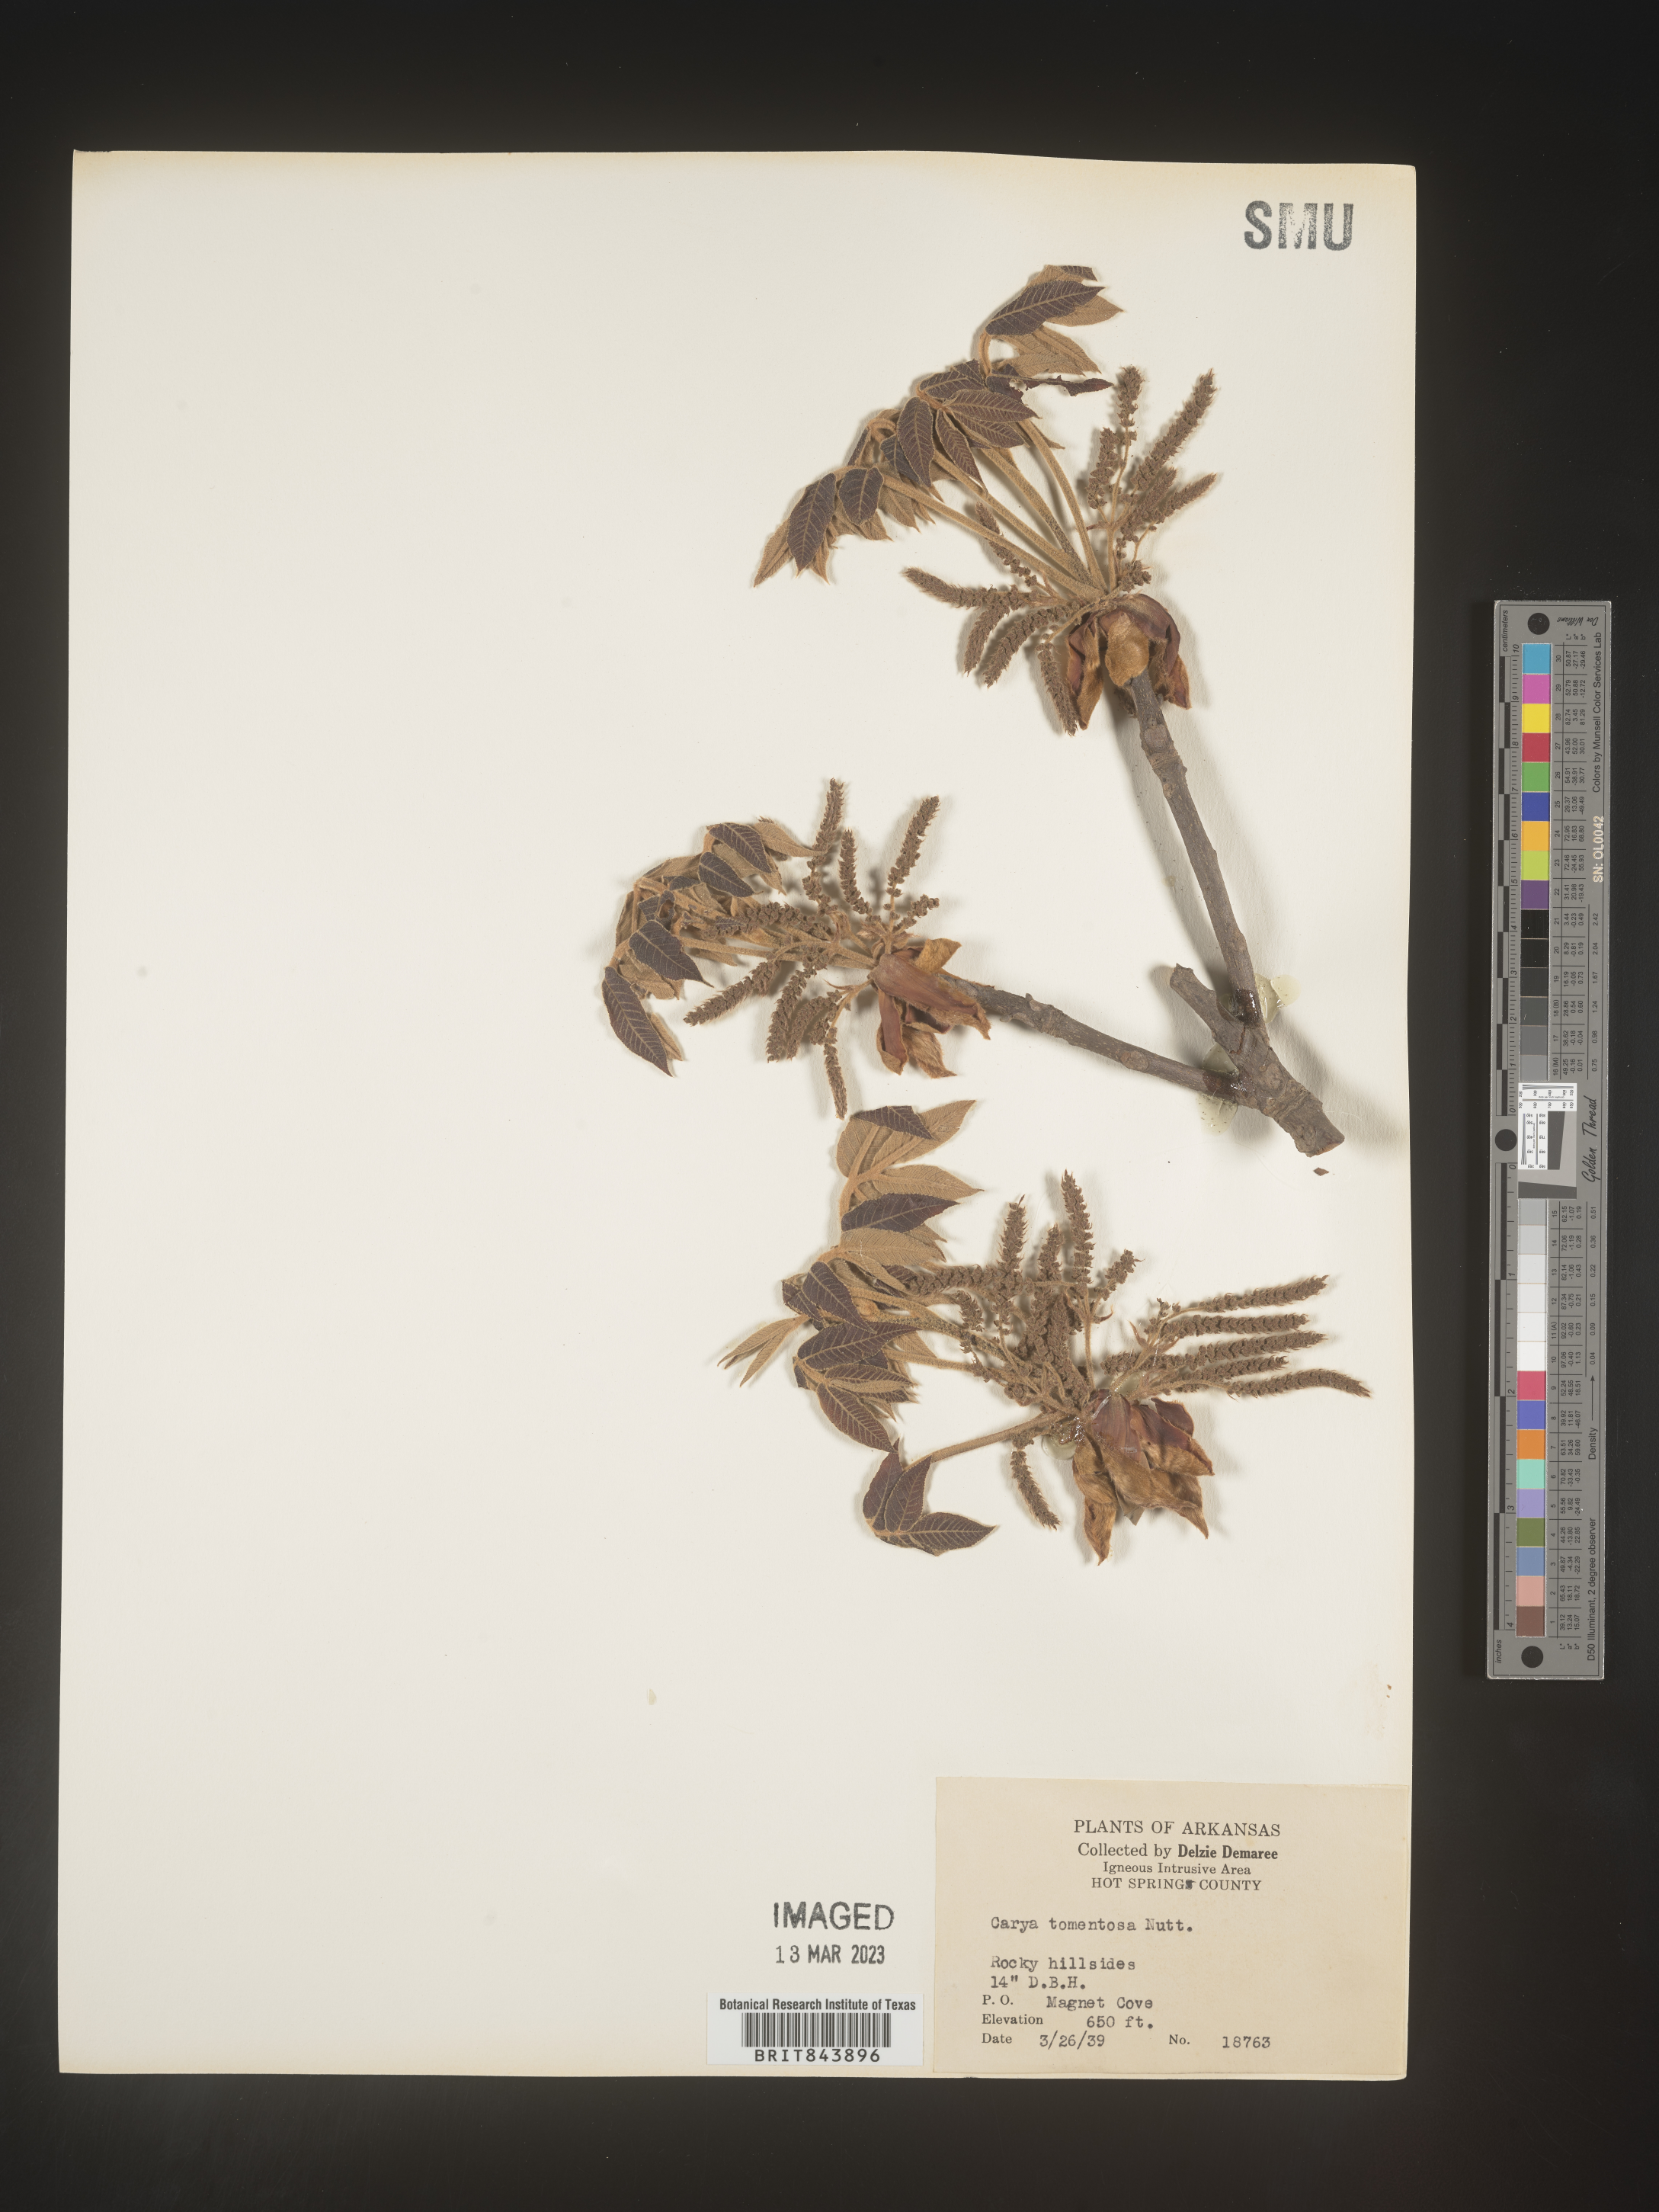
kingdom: Plantae
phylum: Tracheophyta
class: Magnoliopsida
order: Fagales
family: Juglandaceae
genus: Carya
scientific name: Carya alba
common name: Mockernut hickory
